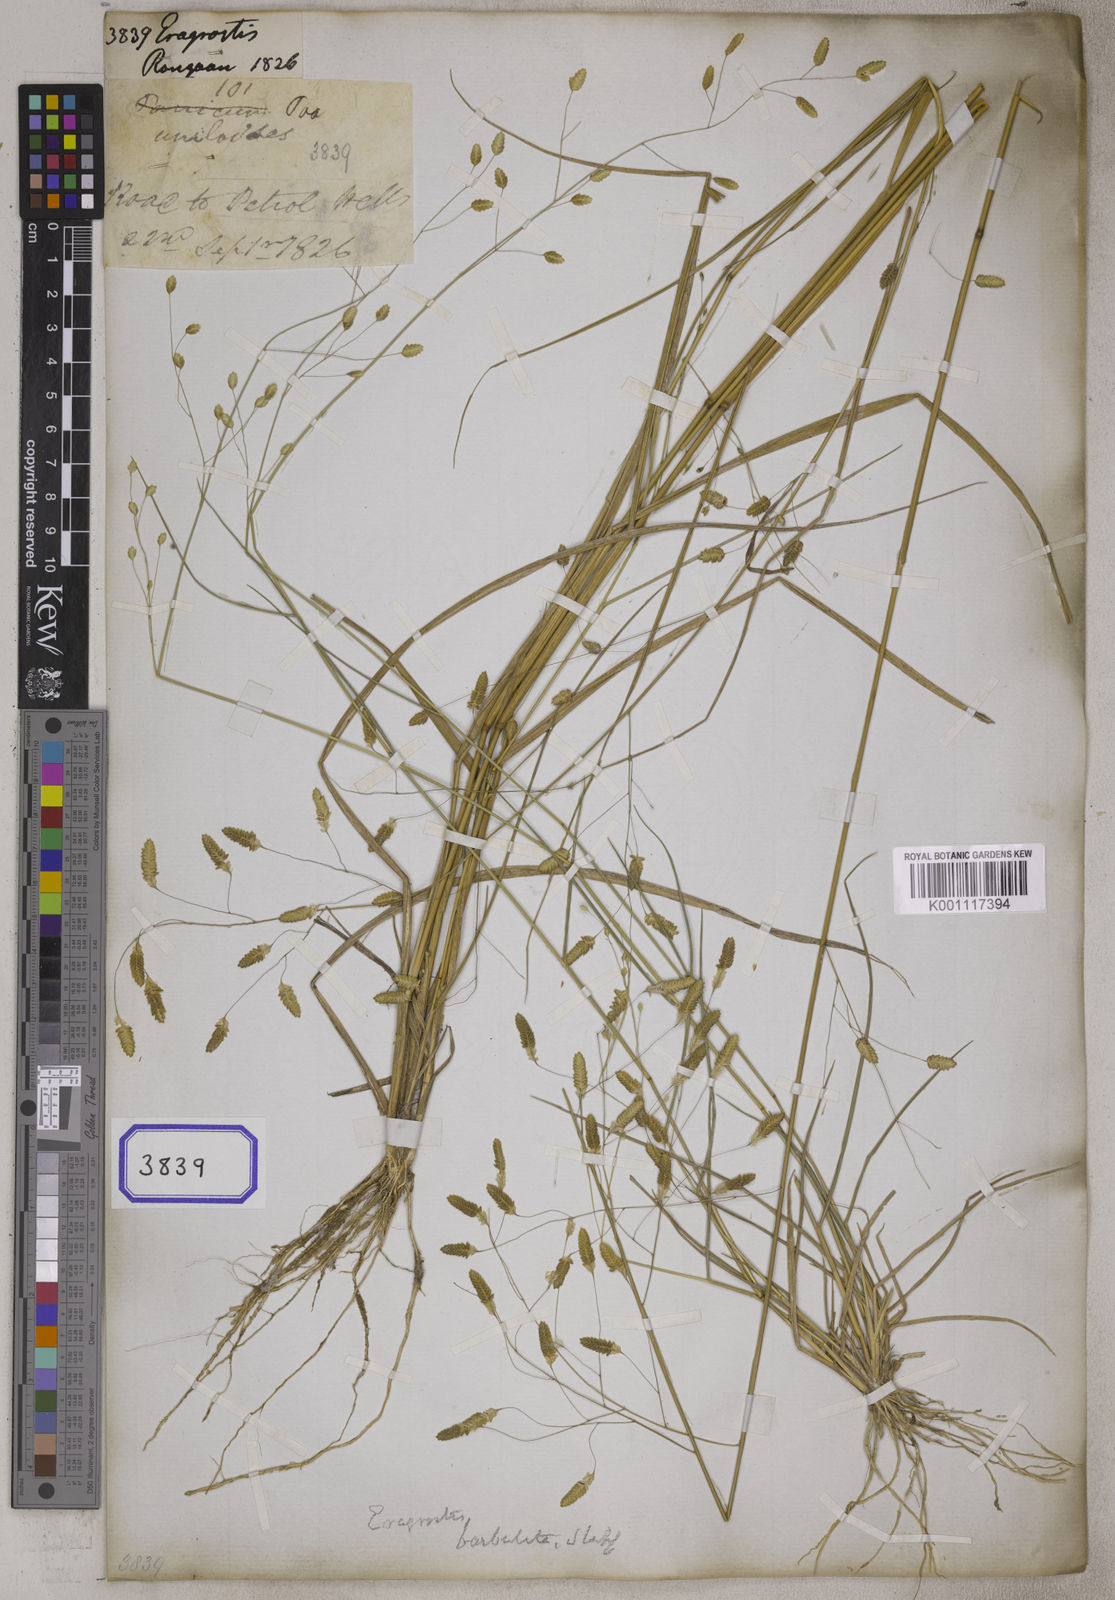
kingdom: Plantae
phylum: Tracheophyta
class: Liliopsida
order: Poales
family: Poaceae
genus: Eragrostis
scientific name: Eragrostis
